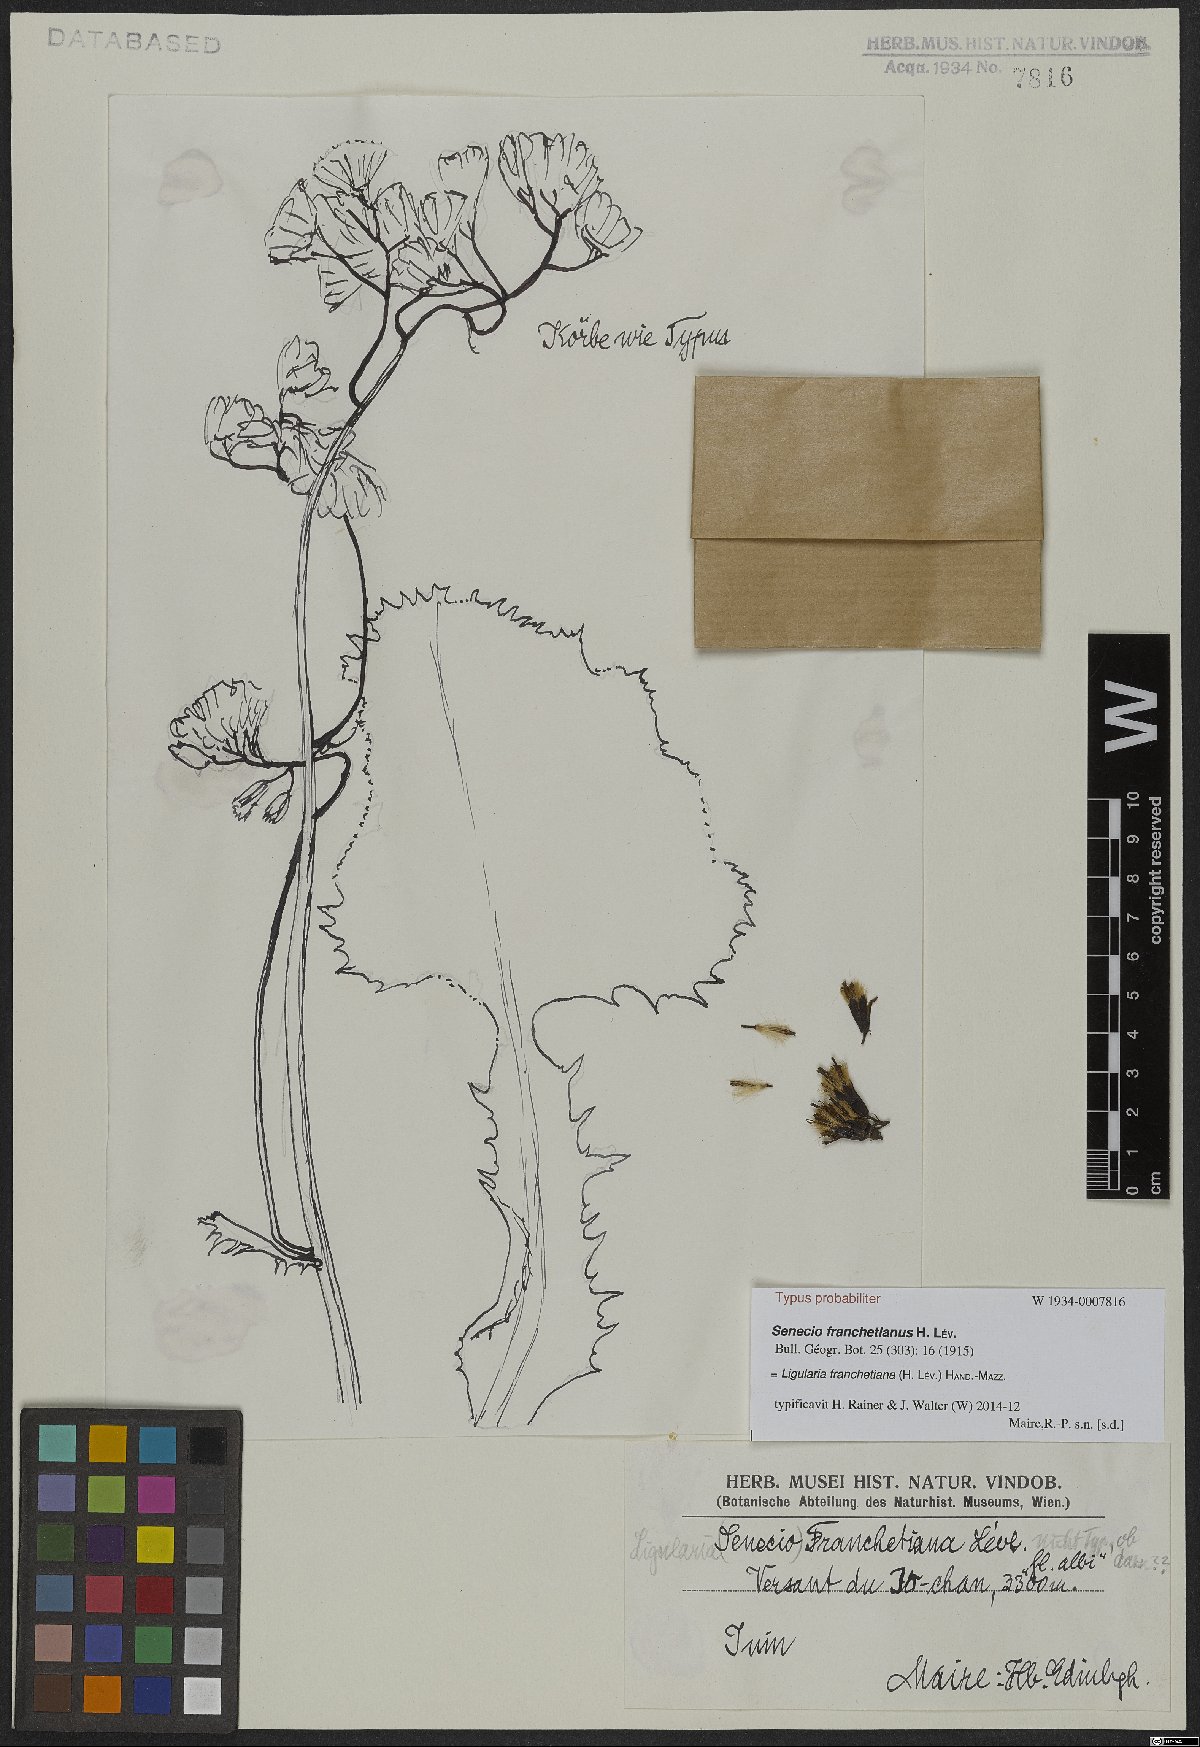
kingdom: Plantae
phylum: Tracheophyta
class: Magnoliopsida
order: Asterales
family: Asteraceae
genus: Ligularia
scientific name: Ligularia franchetiana
